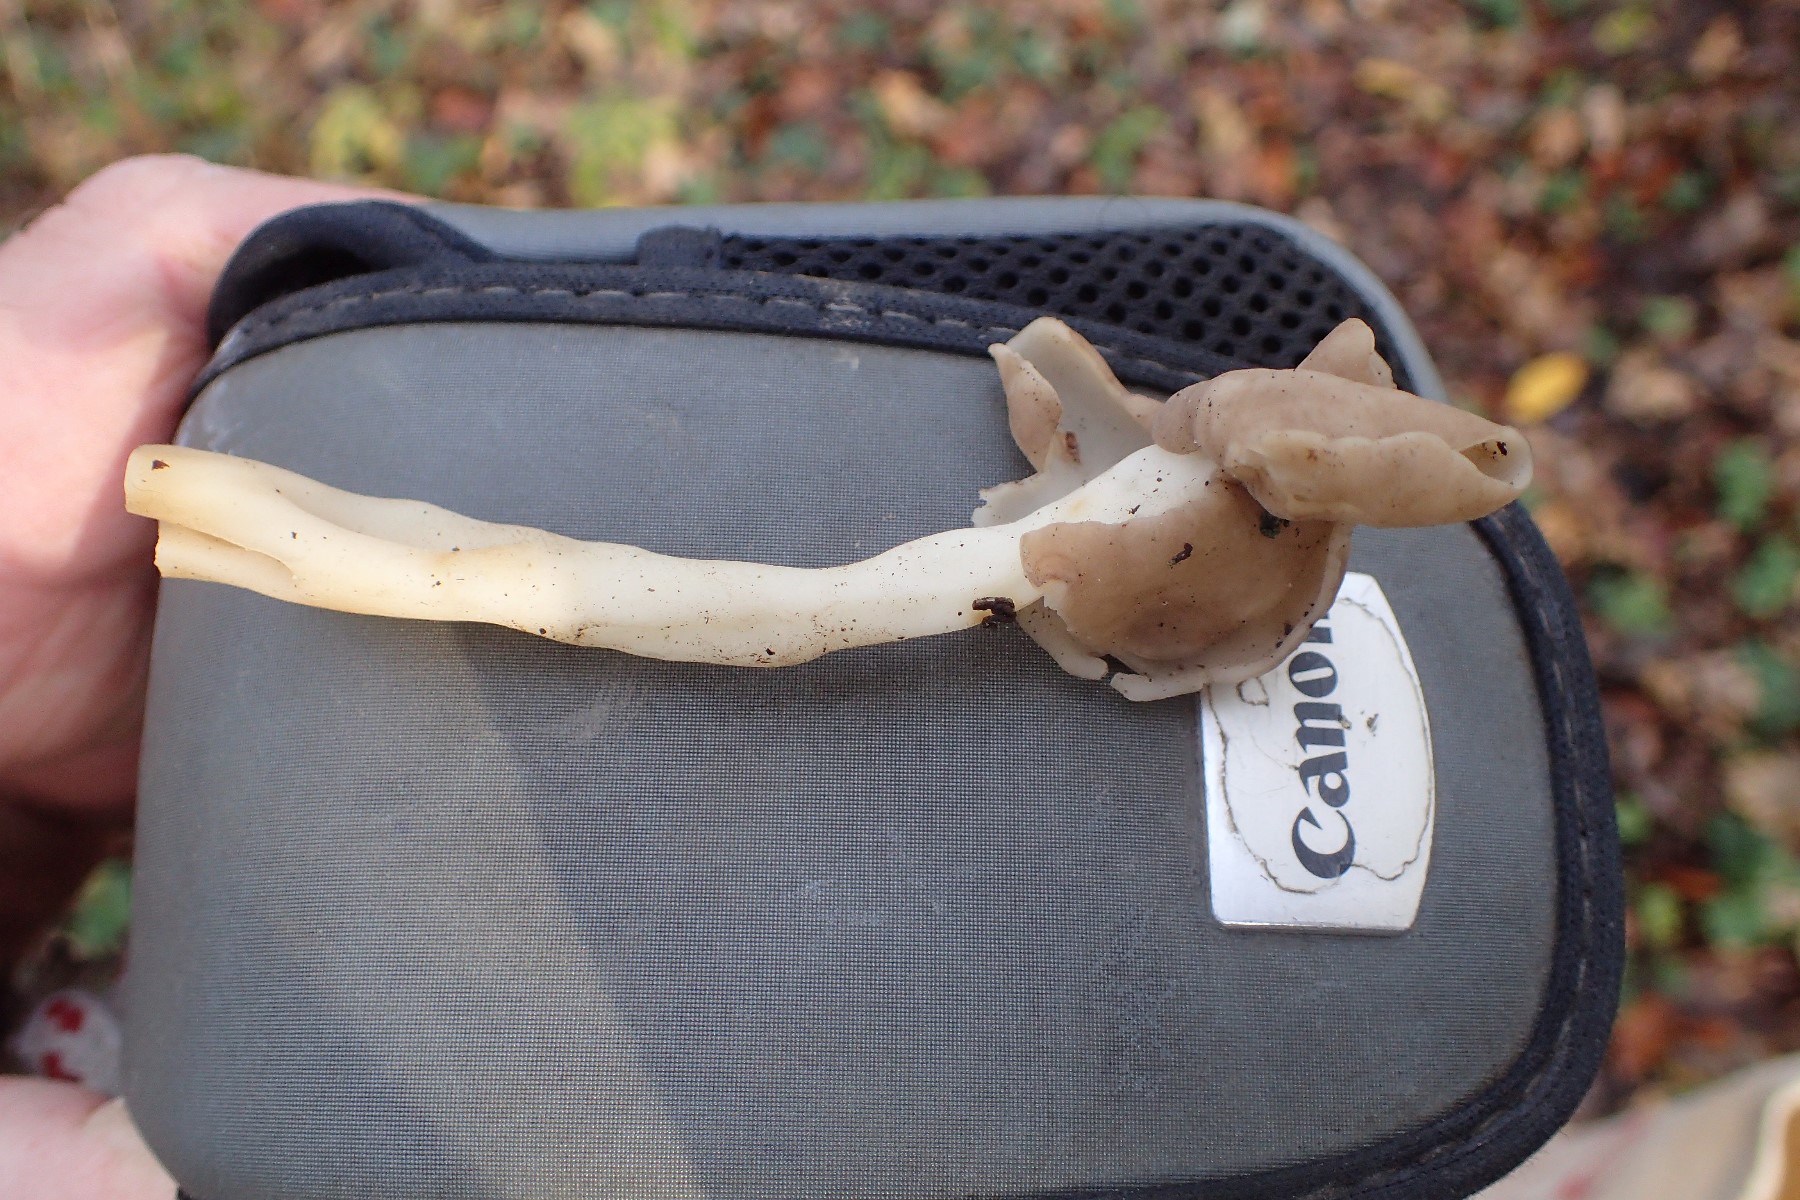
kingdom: Fungi
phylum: Ascomycota
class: Pezizomycetes
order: Pezizales
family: Helvellaceae
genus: Helvella
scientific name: Helvella elastica
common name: elastik-foldhat
